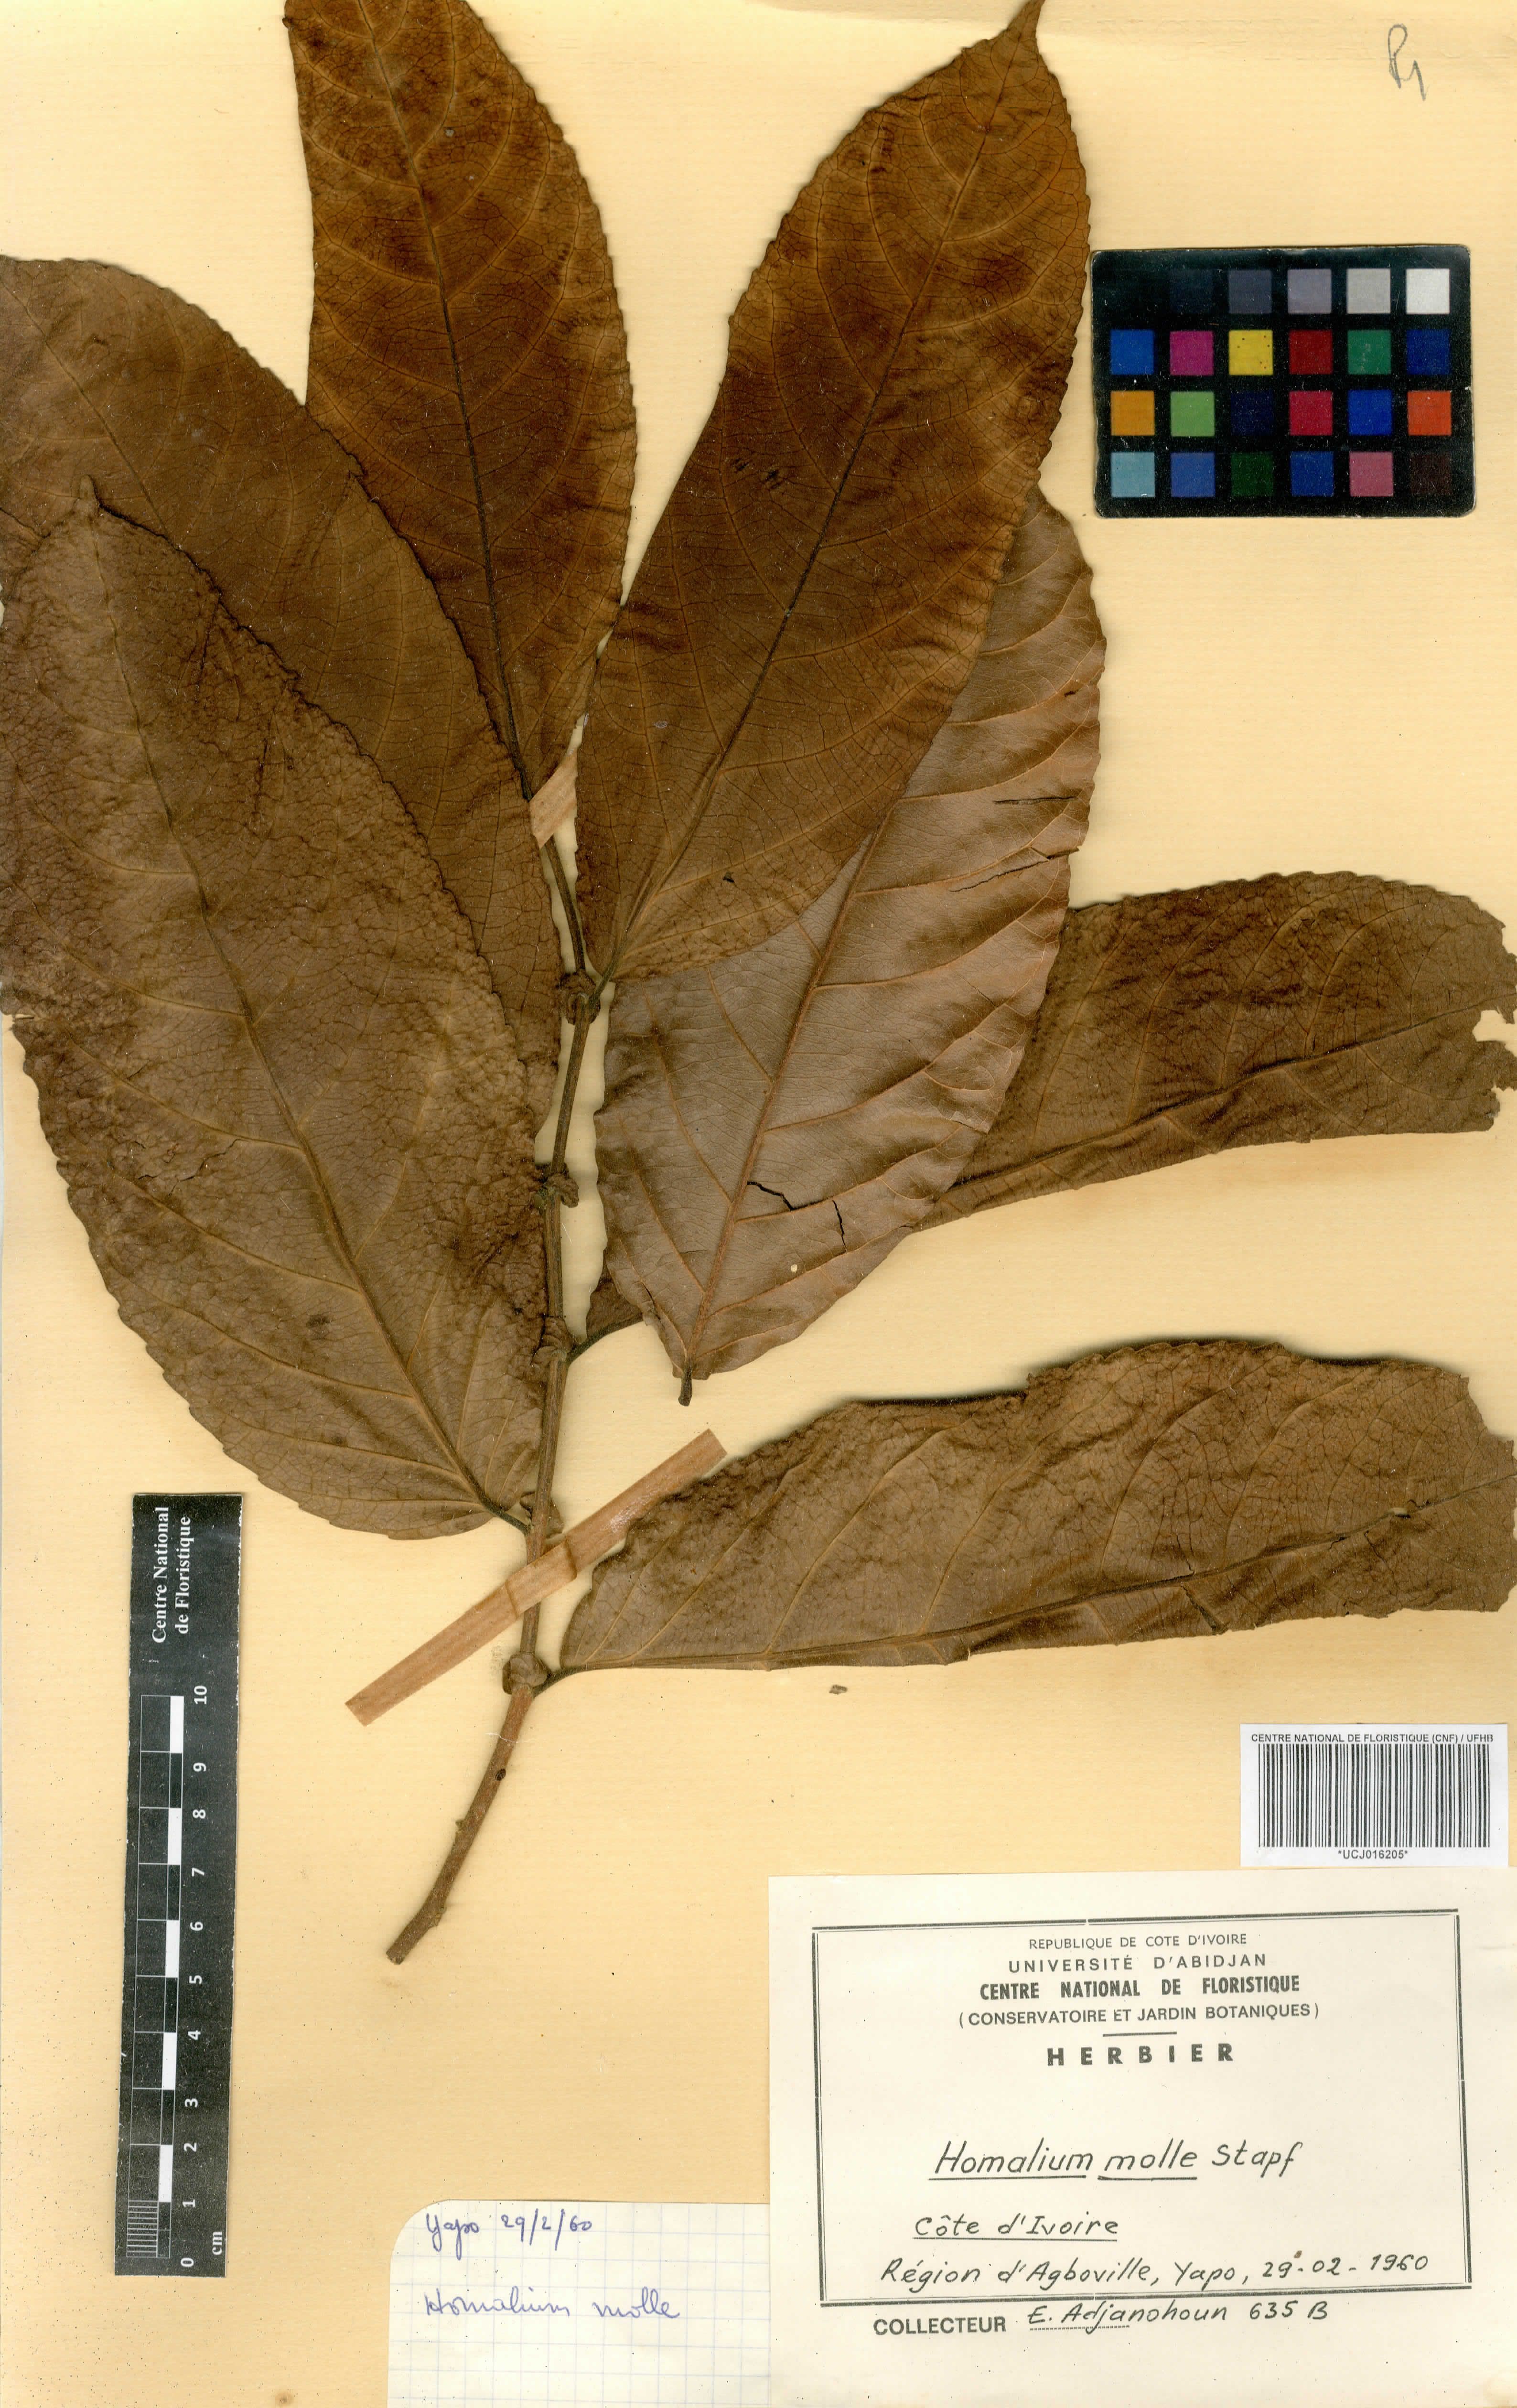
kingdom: Plantae
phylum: Tracheophyta
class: Magnoliopsida
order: Malpighiales
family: Salicaceae
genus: Homalium
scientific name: Homalium africanum
